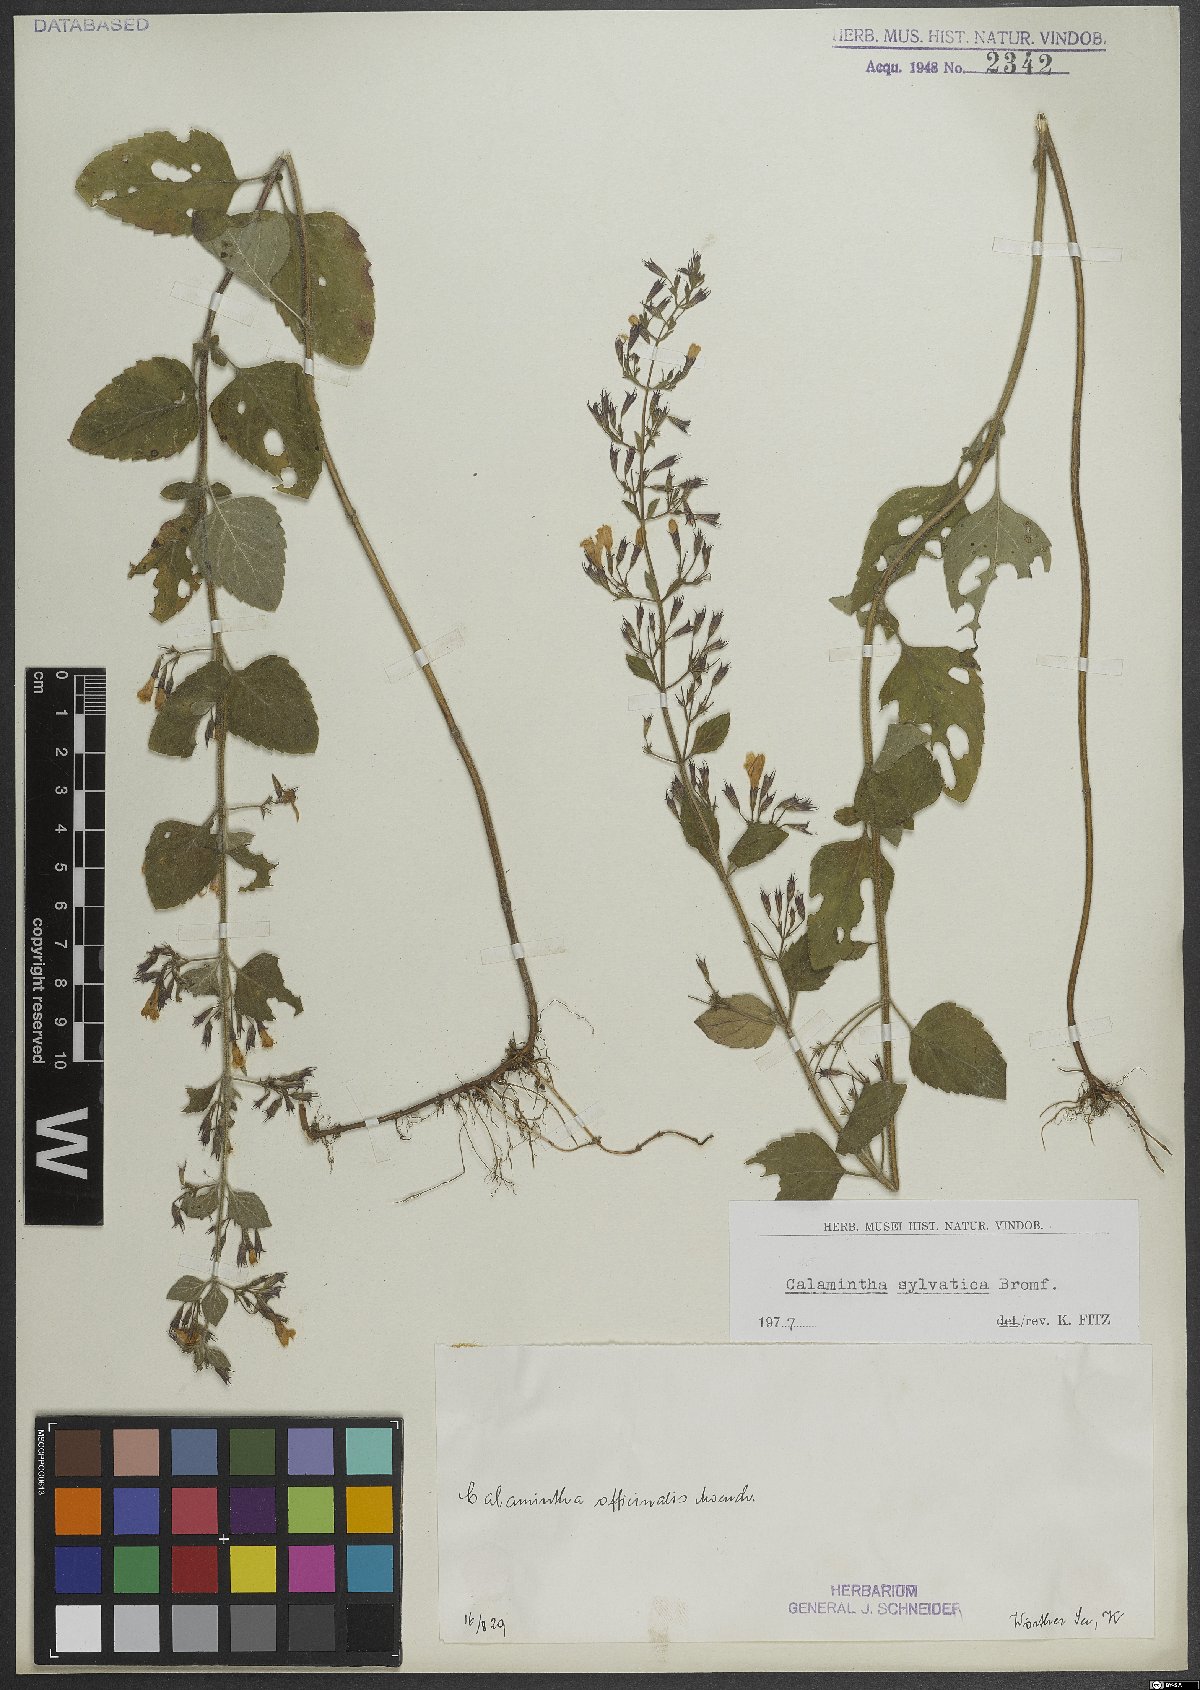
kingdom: Plantae
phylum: Tracheophyta
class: Magnoliopsida
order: Lamiales
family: Lamiaceae
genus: Clinopodium
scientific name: Clinopodium menthifolium
